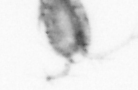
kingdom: Animalia
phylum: Arthropoda
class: Copepoda
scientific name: Copepoda
